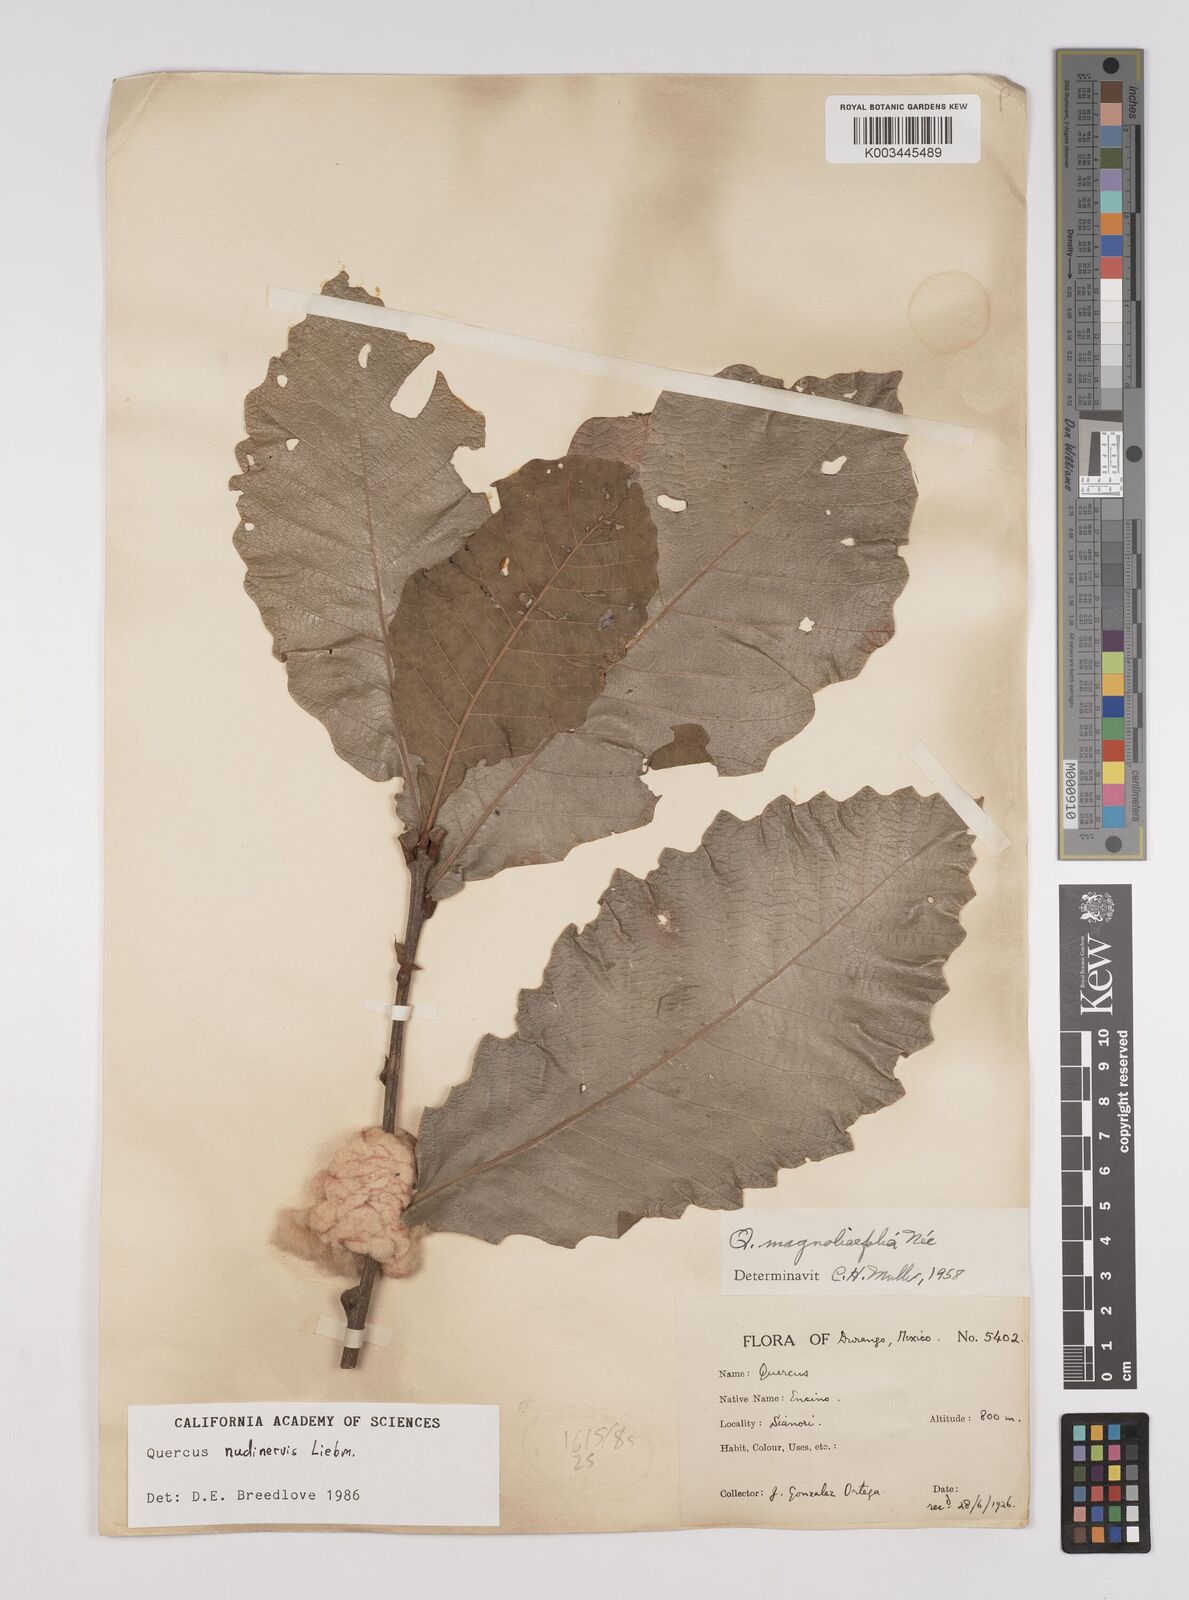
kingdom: Plantae
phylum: Tracheophyta
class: Magnoliopsida
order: Fagales
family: Fagaceae
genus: Quercus
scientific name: Quercus magnoliifolia
